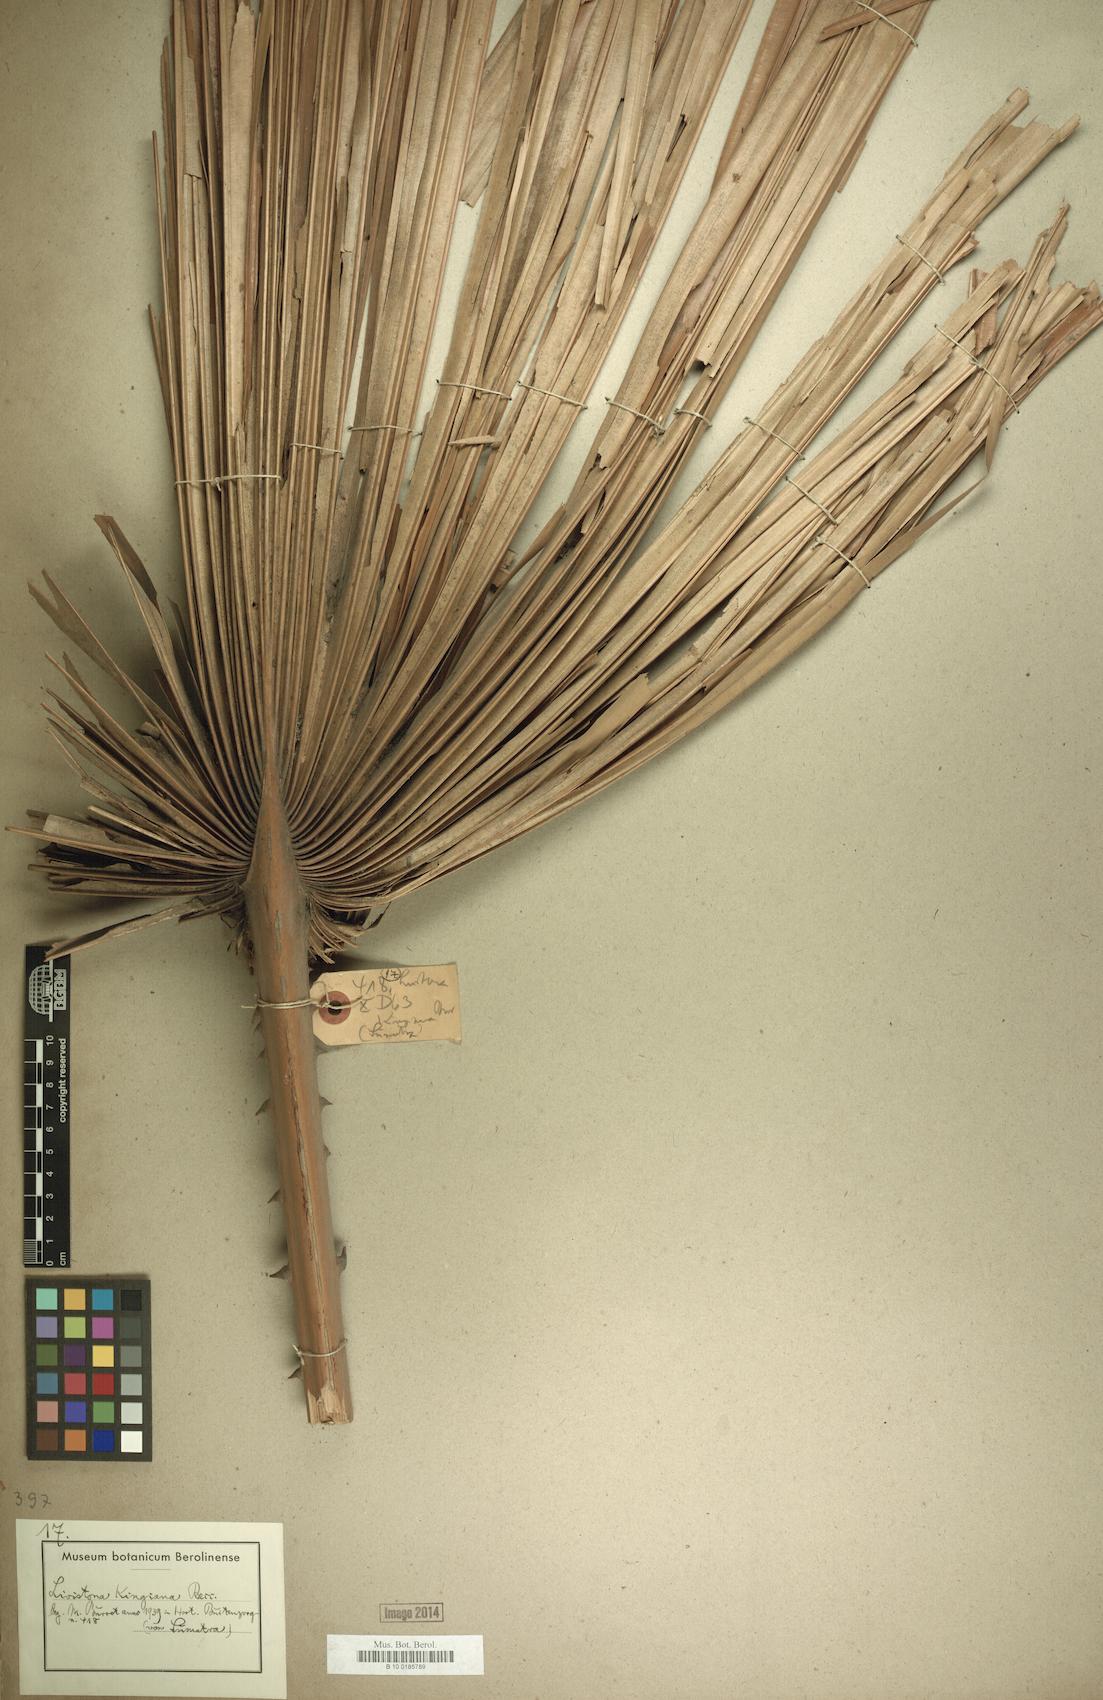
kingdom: Plantae
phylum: Tracheophyta
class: Liliopsida
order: Arecales
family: Arecaceae
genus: Pholidocarpus
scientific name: Pholidocarpus kingianus
